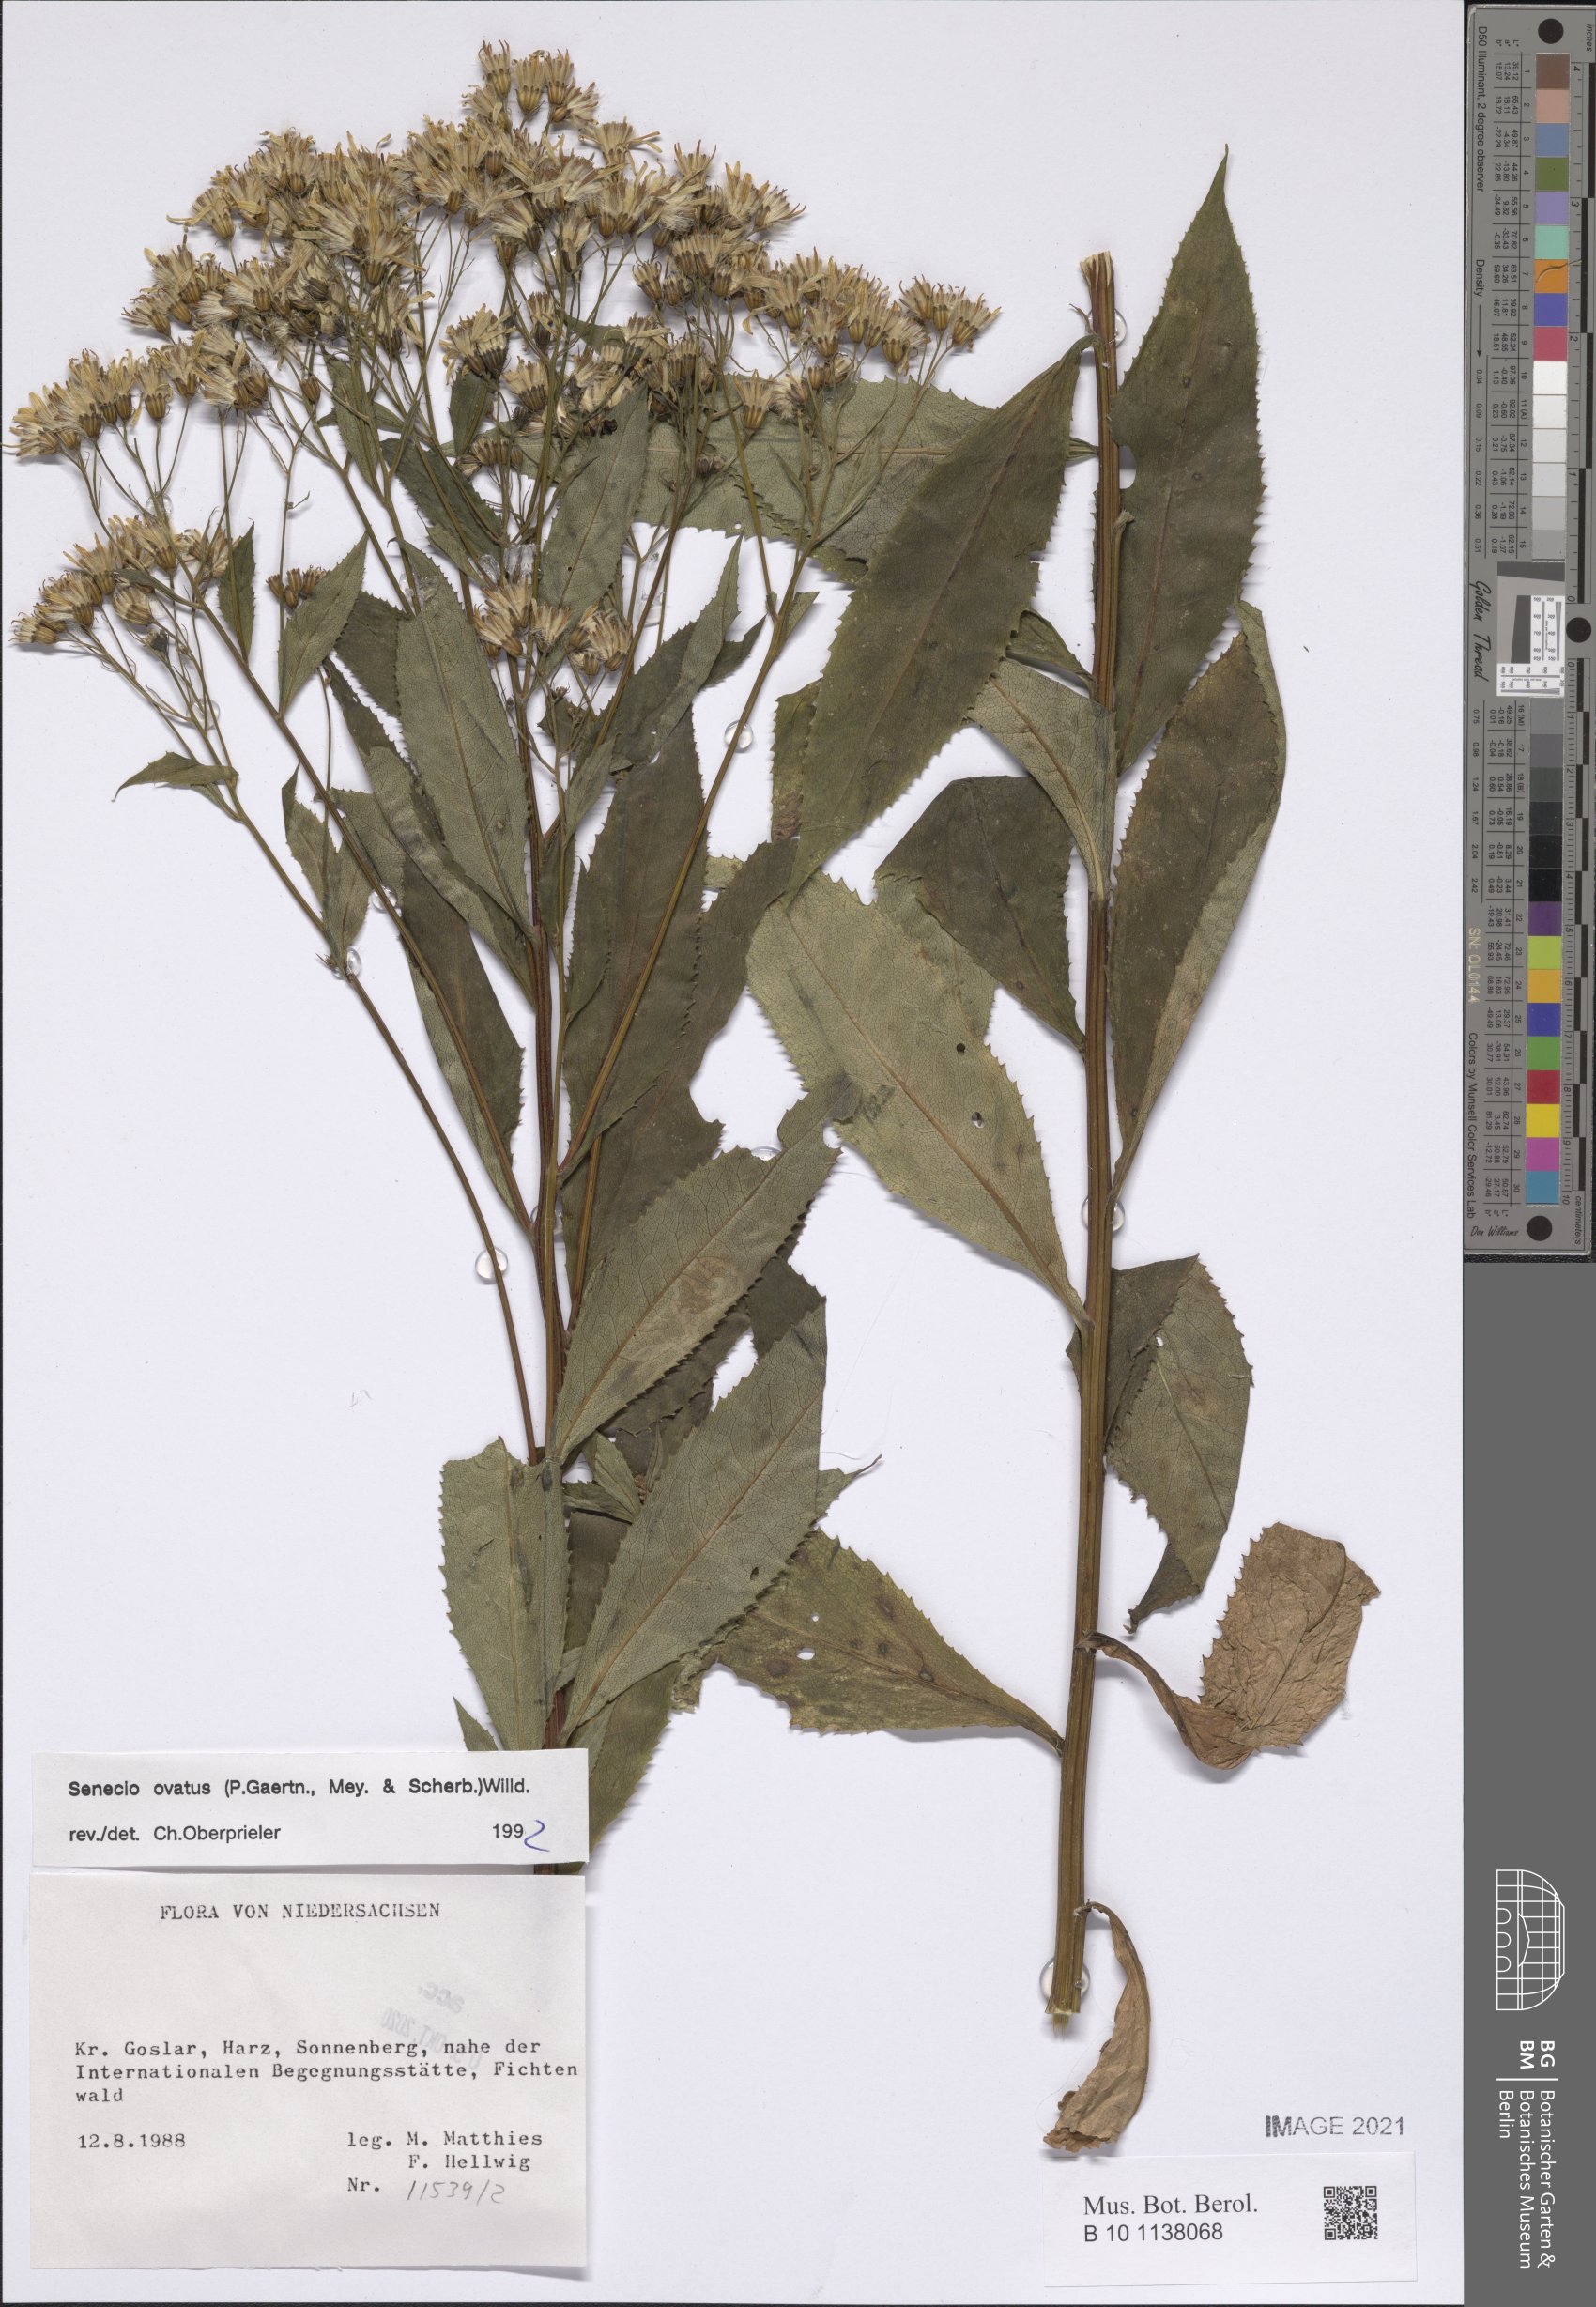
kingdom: Plantae
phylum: Tracheophyta
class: Magnoliopsida
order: Asterales
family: Asteraceae
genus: Senecio
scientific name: Senecio ovatus
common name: Wood ragwort
